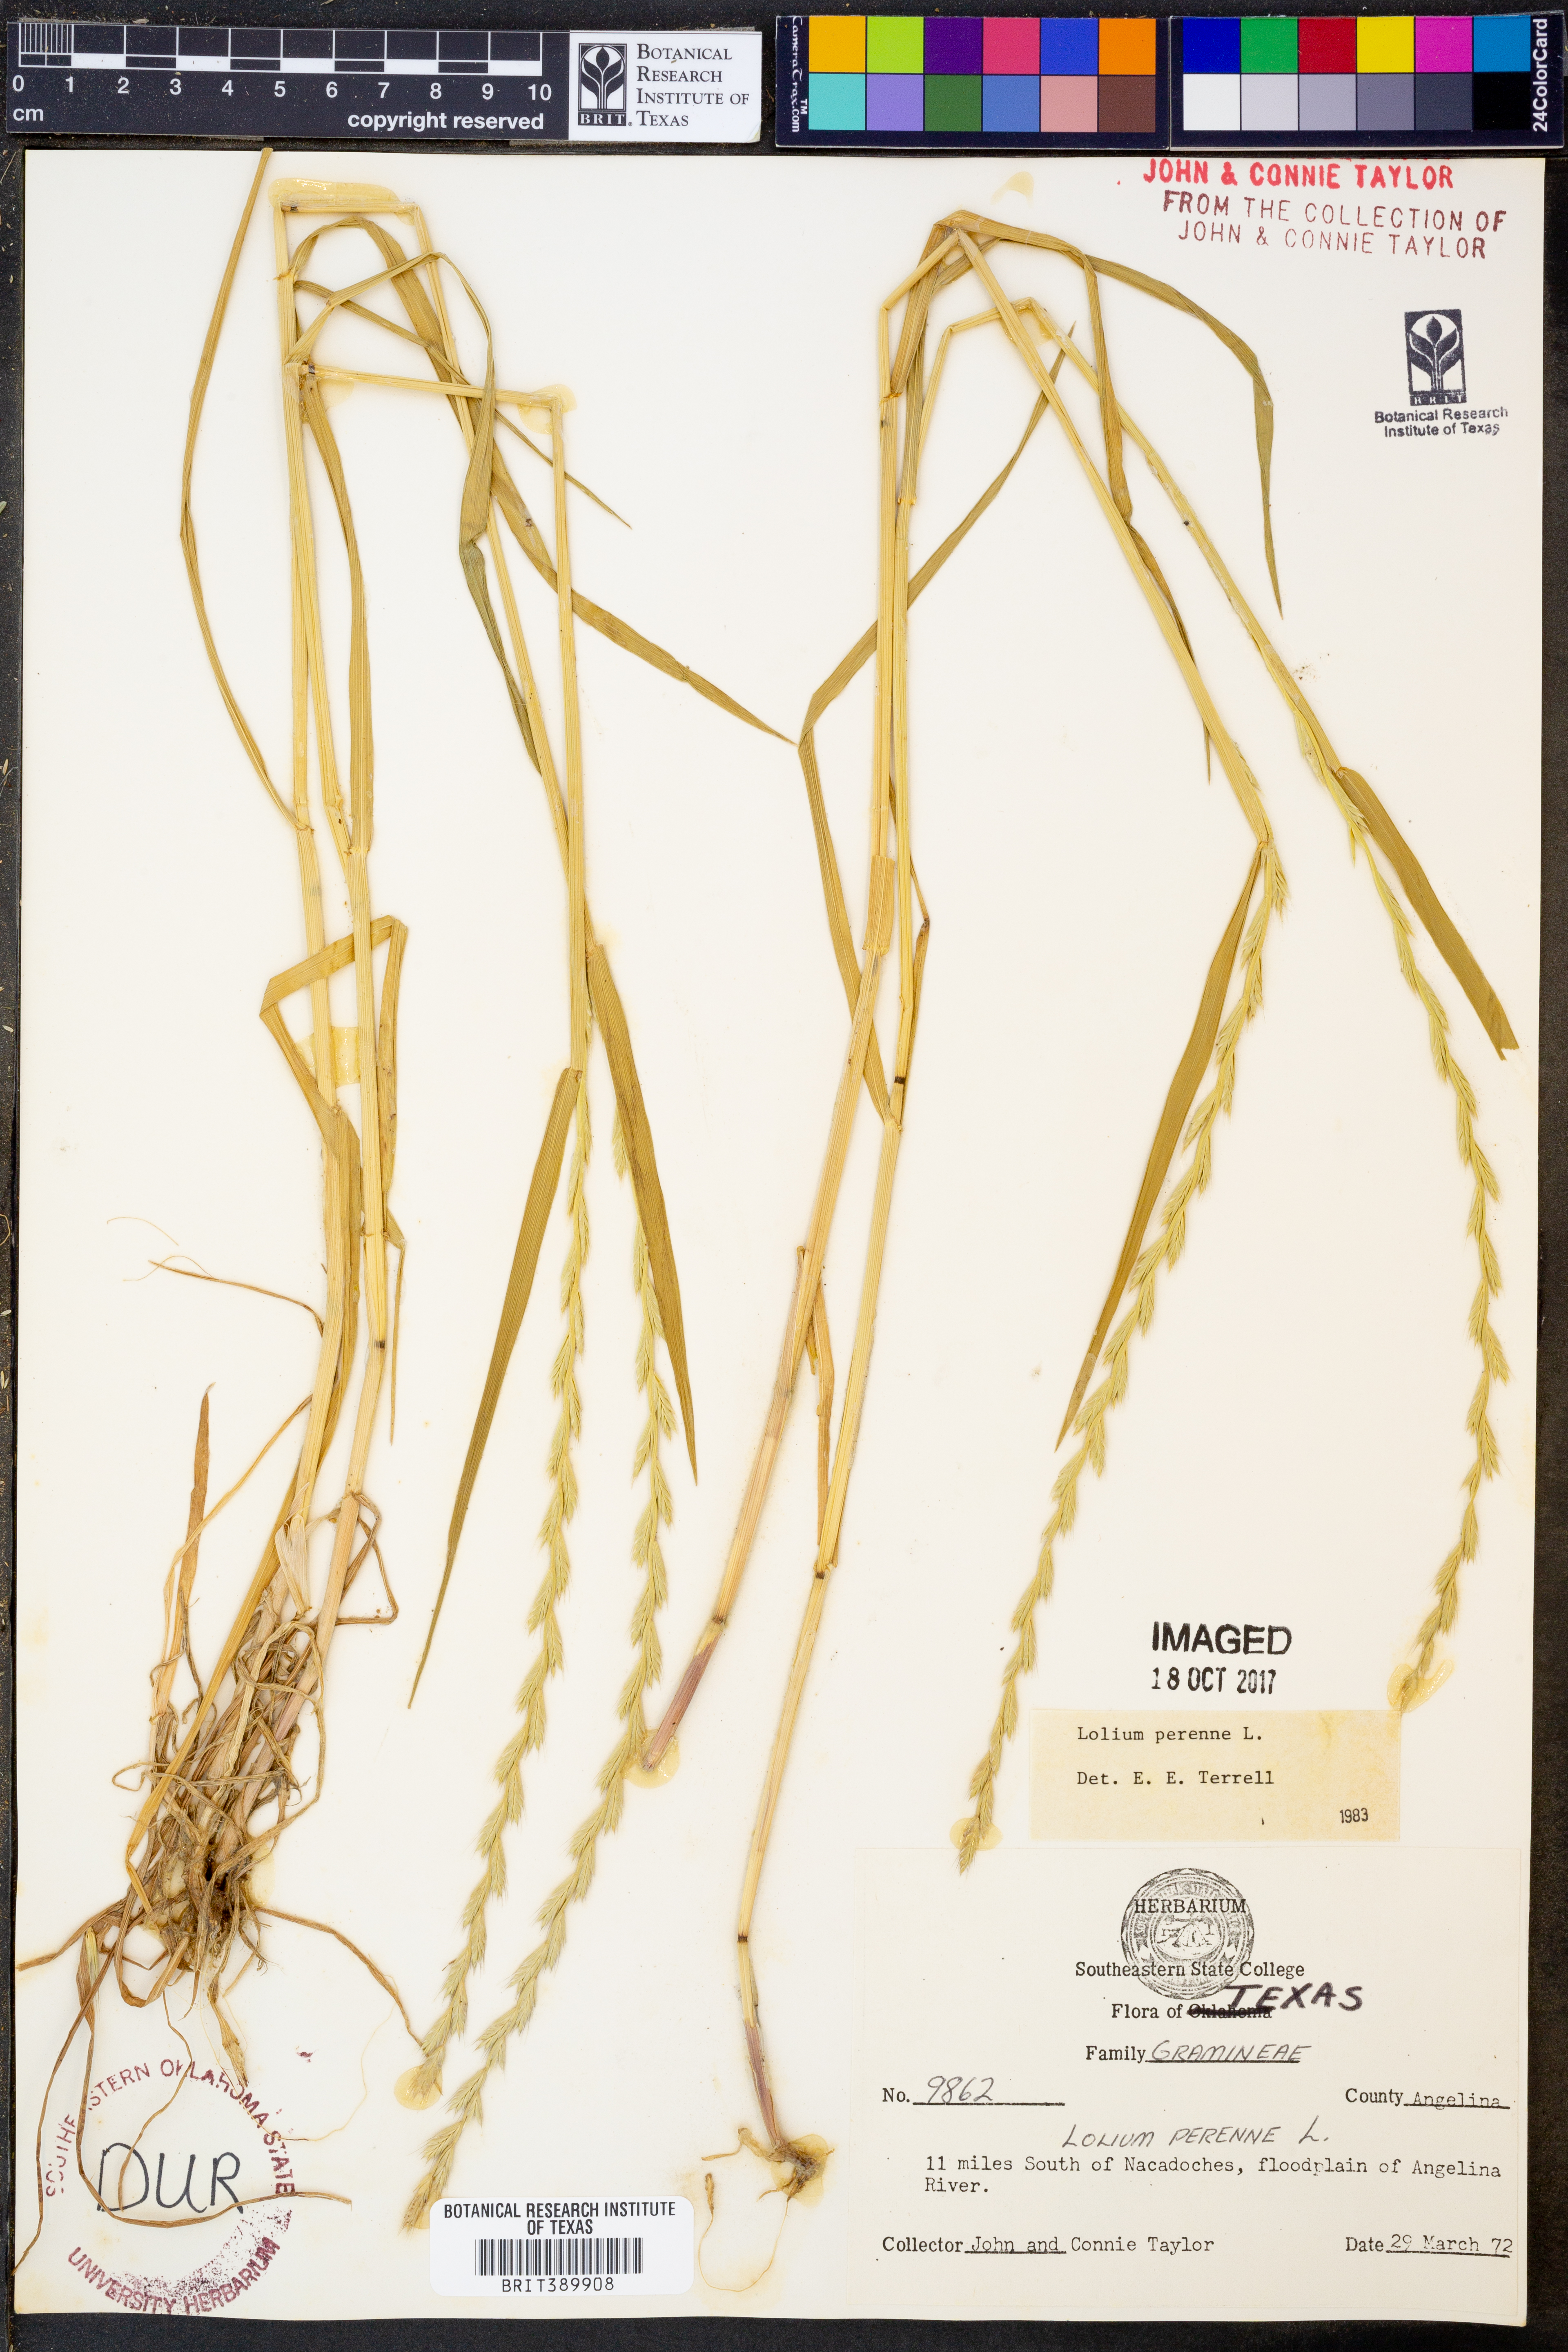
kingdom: Plantae
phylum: Tracheophyta
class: Liliopsida
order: Poales
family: Poaceae
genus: Lolium
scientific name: Lolium perenne
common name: Perennial ryegrass
